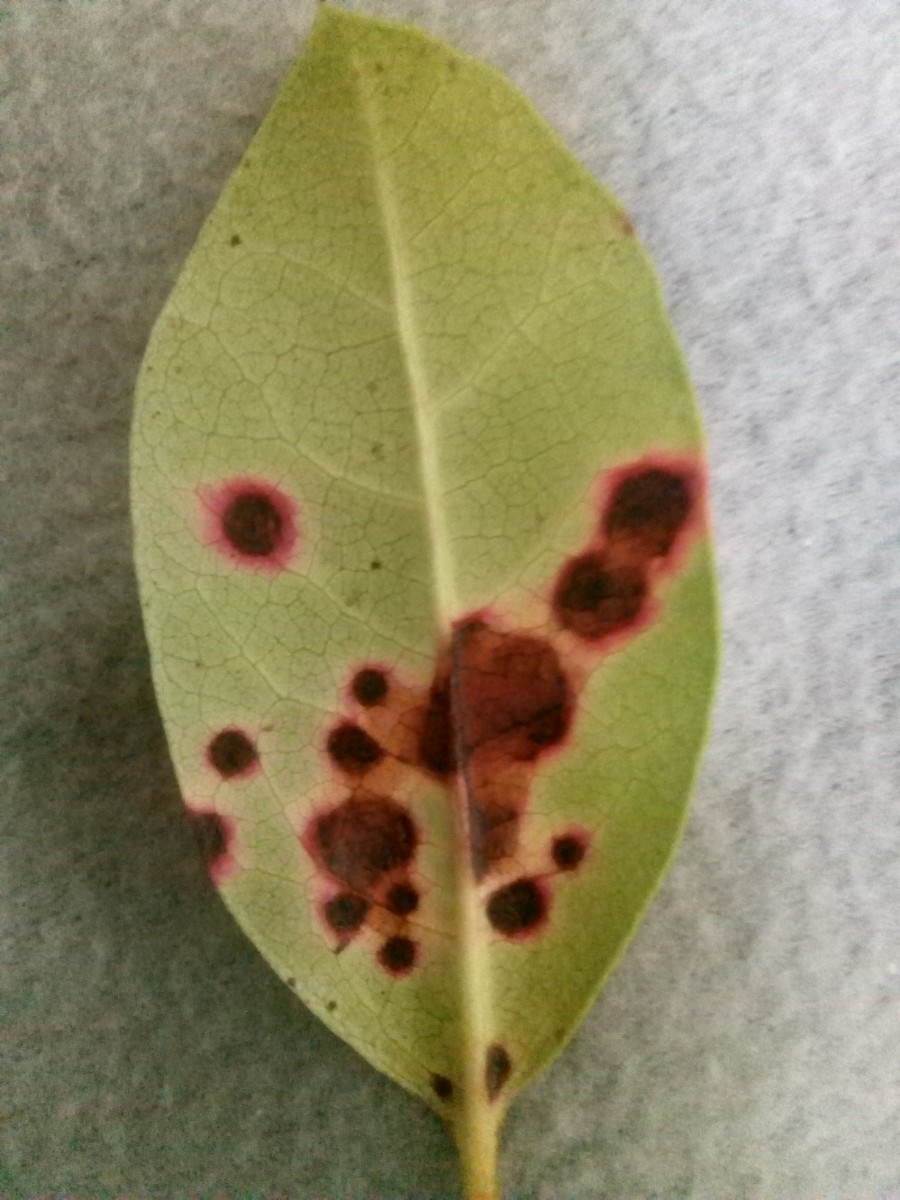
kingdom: Fungi
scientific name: Fungi
